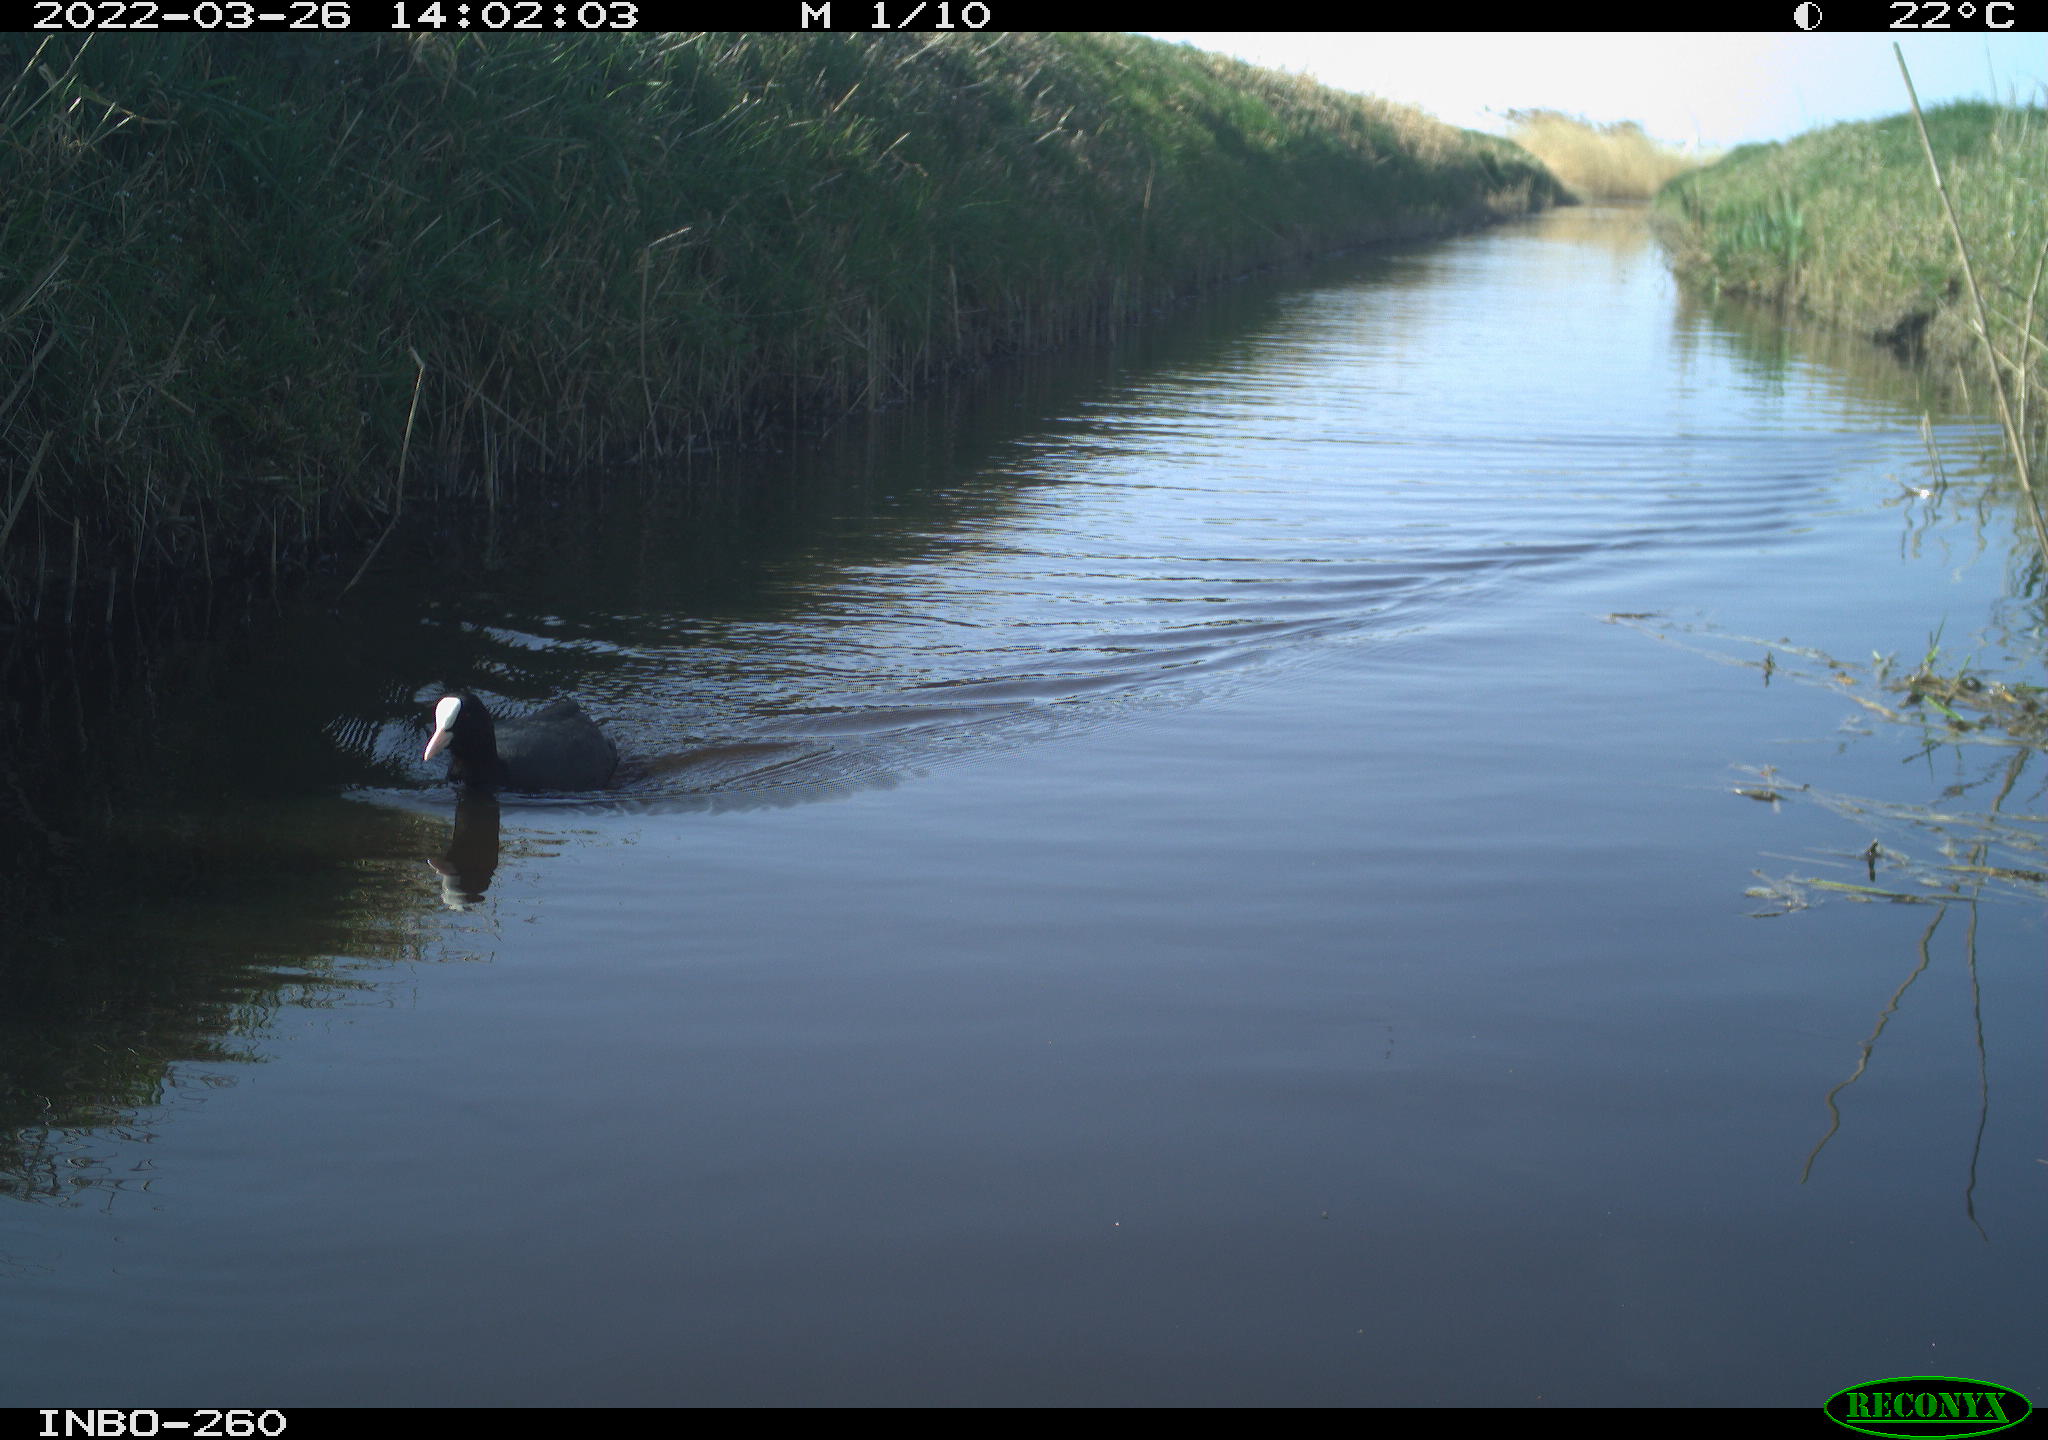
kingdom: Animalia
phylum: Chordata
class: Aves
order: Gruiformes
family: Rallidae
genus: Fulica
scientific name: Fulica atra
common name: Eurasian coot
